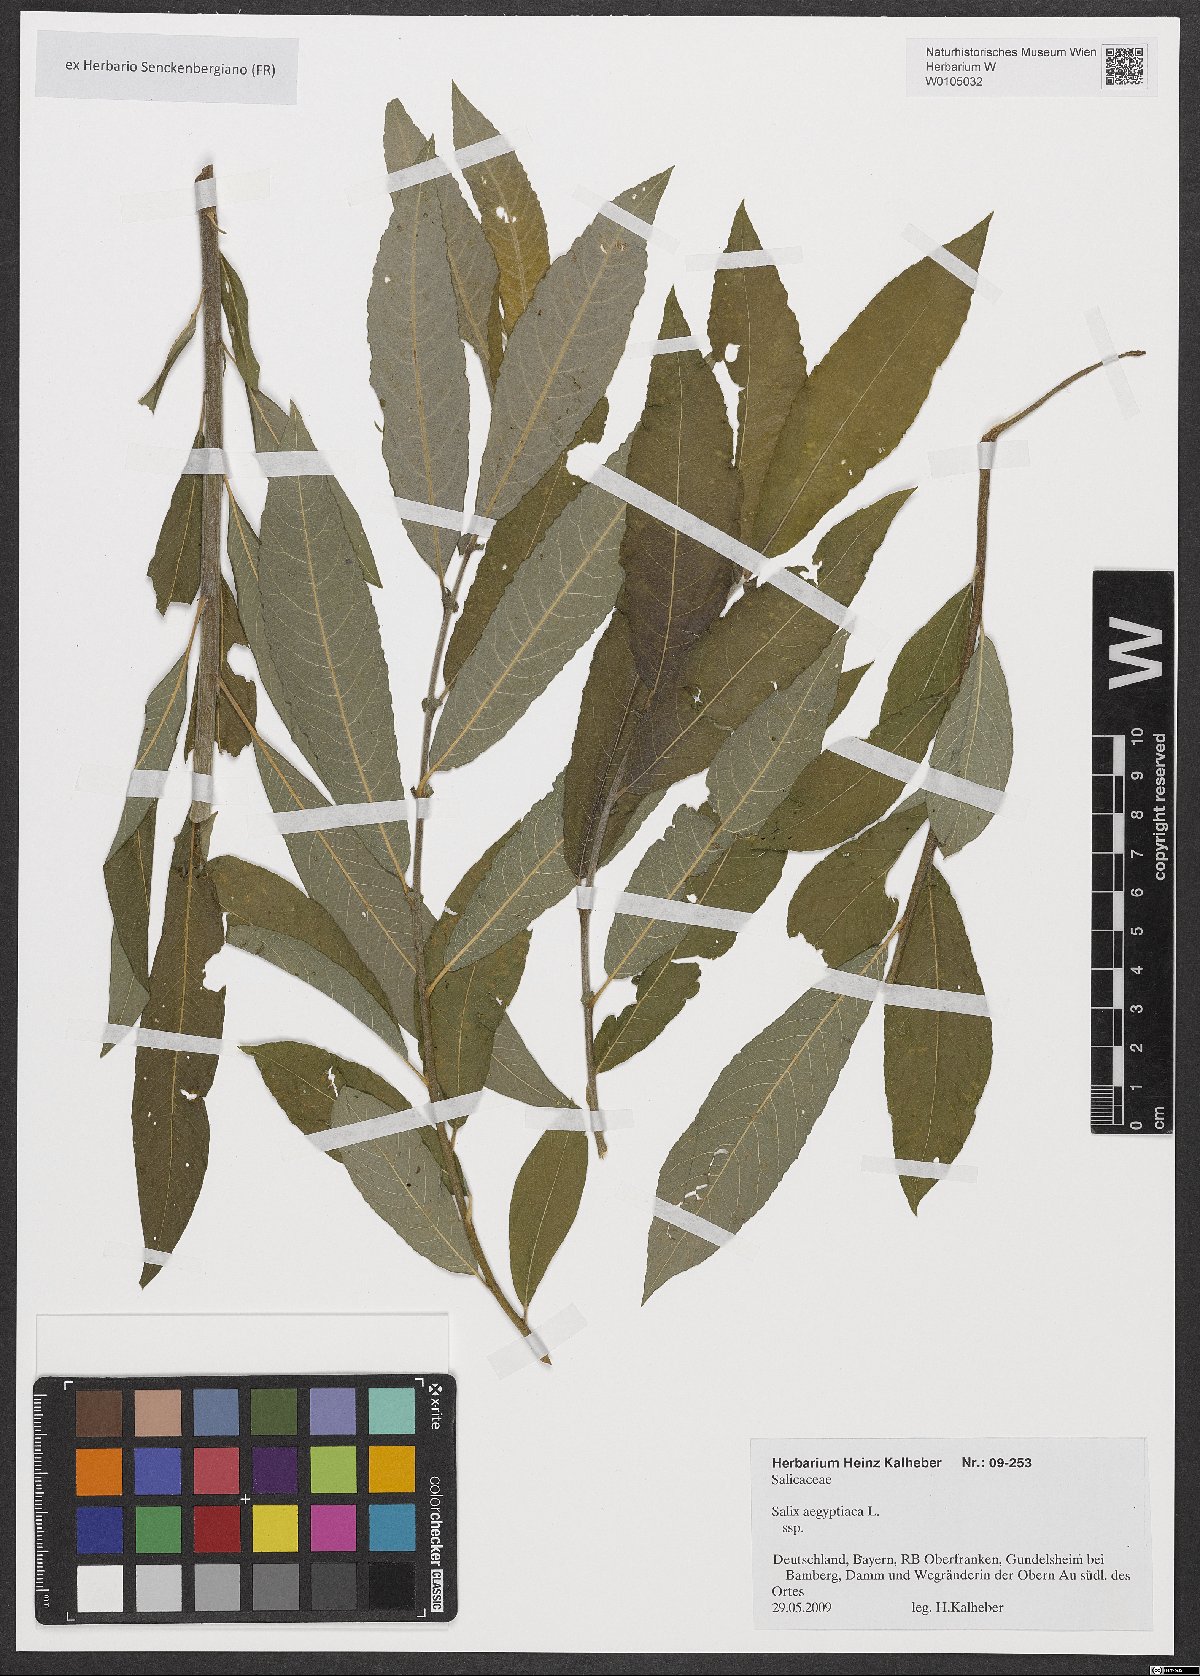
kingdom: Plantae
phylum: Tracheophyta
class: Magnoliopsida
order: Malpighiales
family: Salicaceae
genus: Salix
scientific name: Salix aegyptiaca
